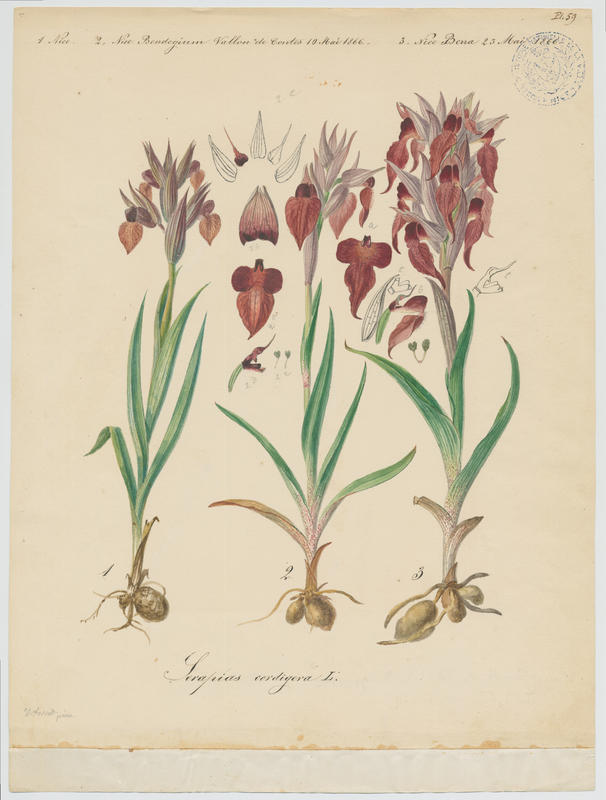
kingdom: Plantae
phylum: Tracheophyta
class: Liliopsida
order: Asparagales
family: Orchidaceae
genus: Serapias
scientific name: Serapias cordigera
